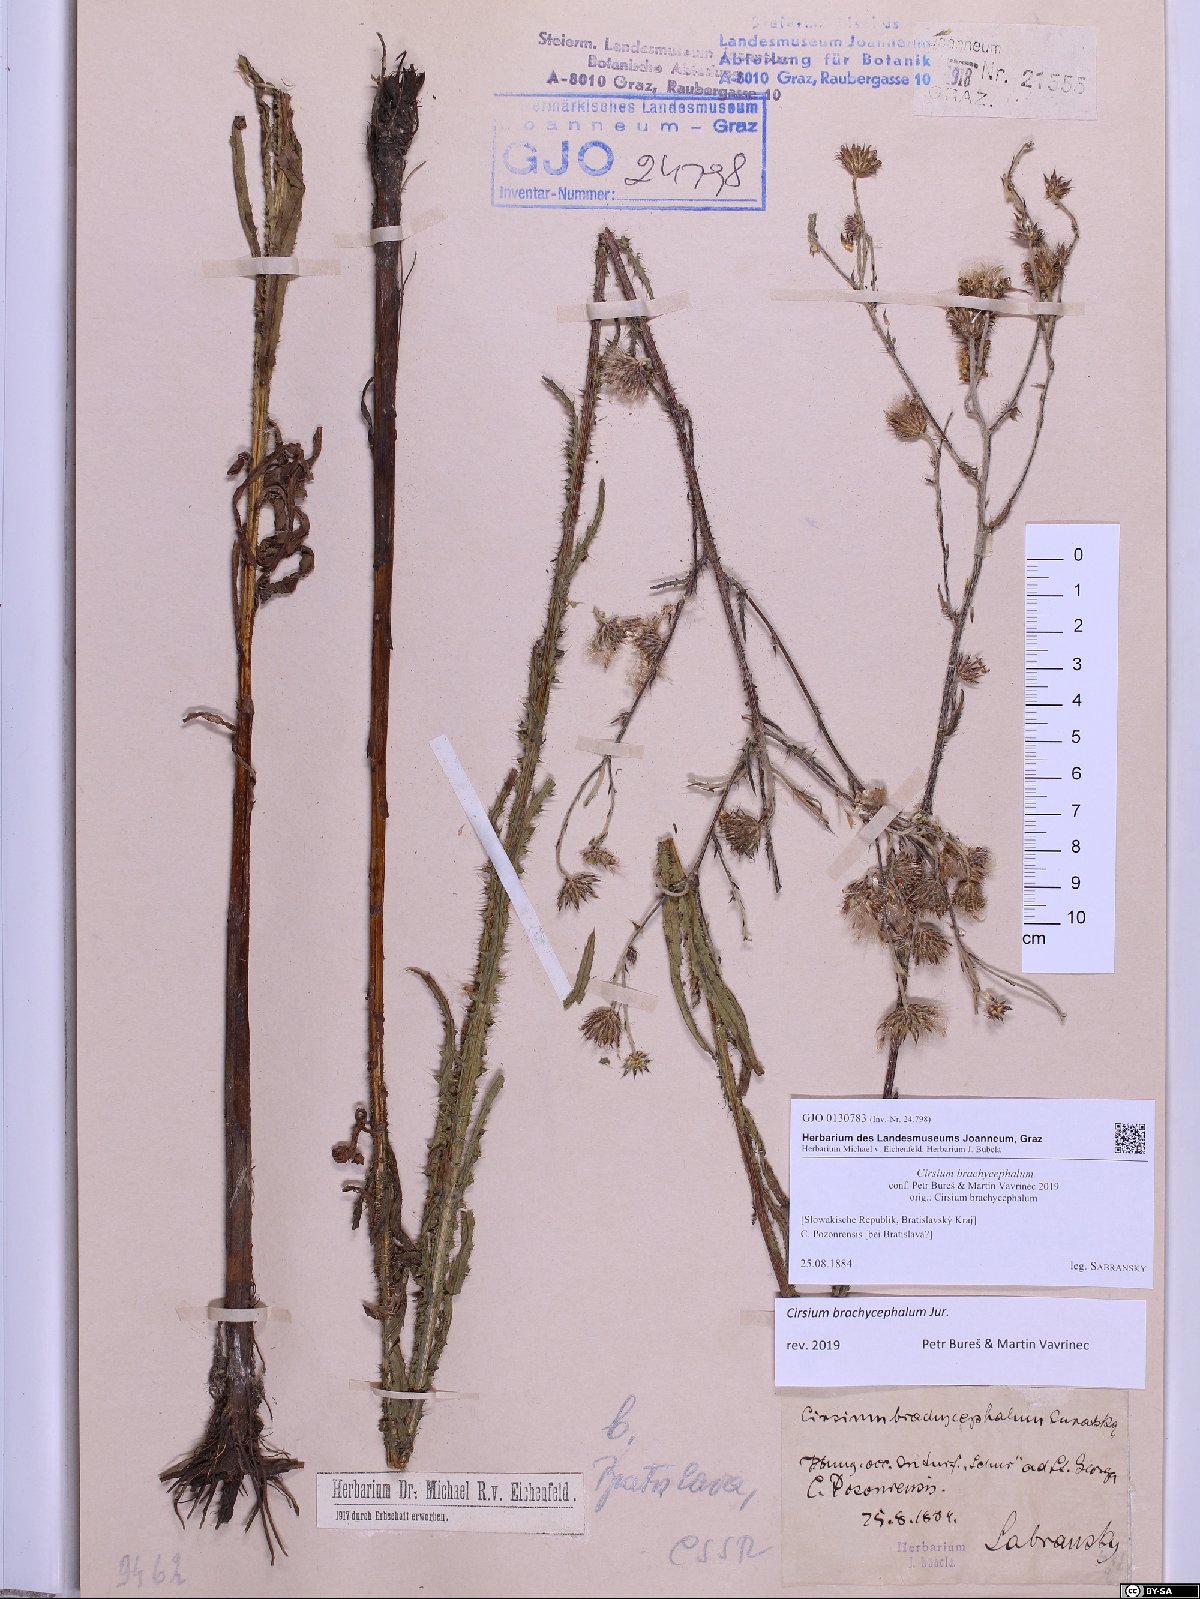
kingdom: Plantae
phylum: Tracheophyta
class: Magnoliopsida
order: Asterales
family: Asteraceae
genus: Cirsium
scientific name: Cirsium brachycephalum
